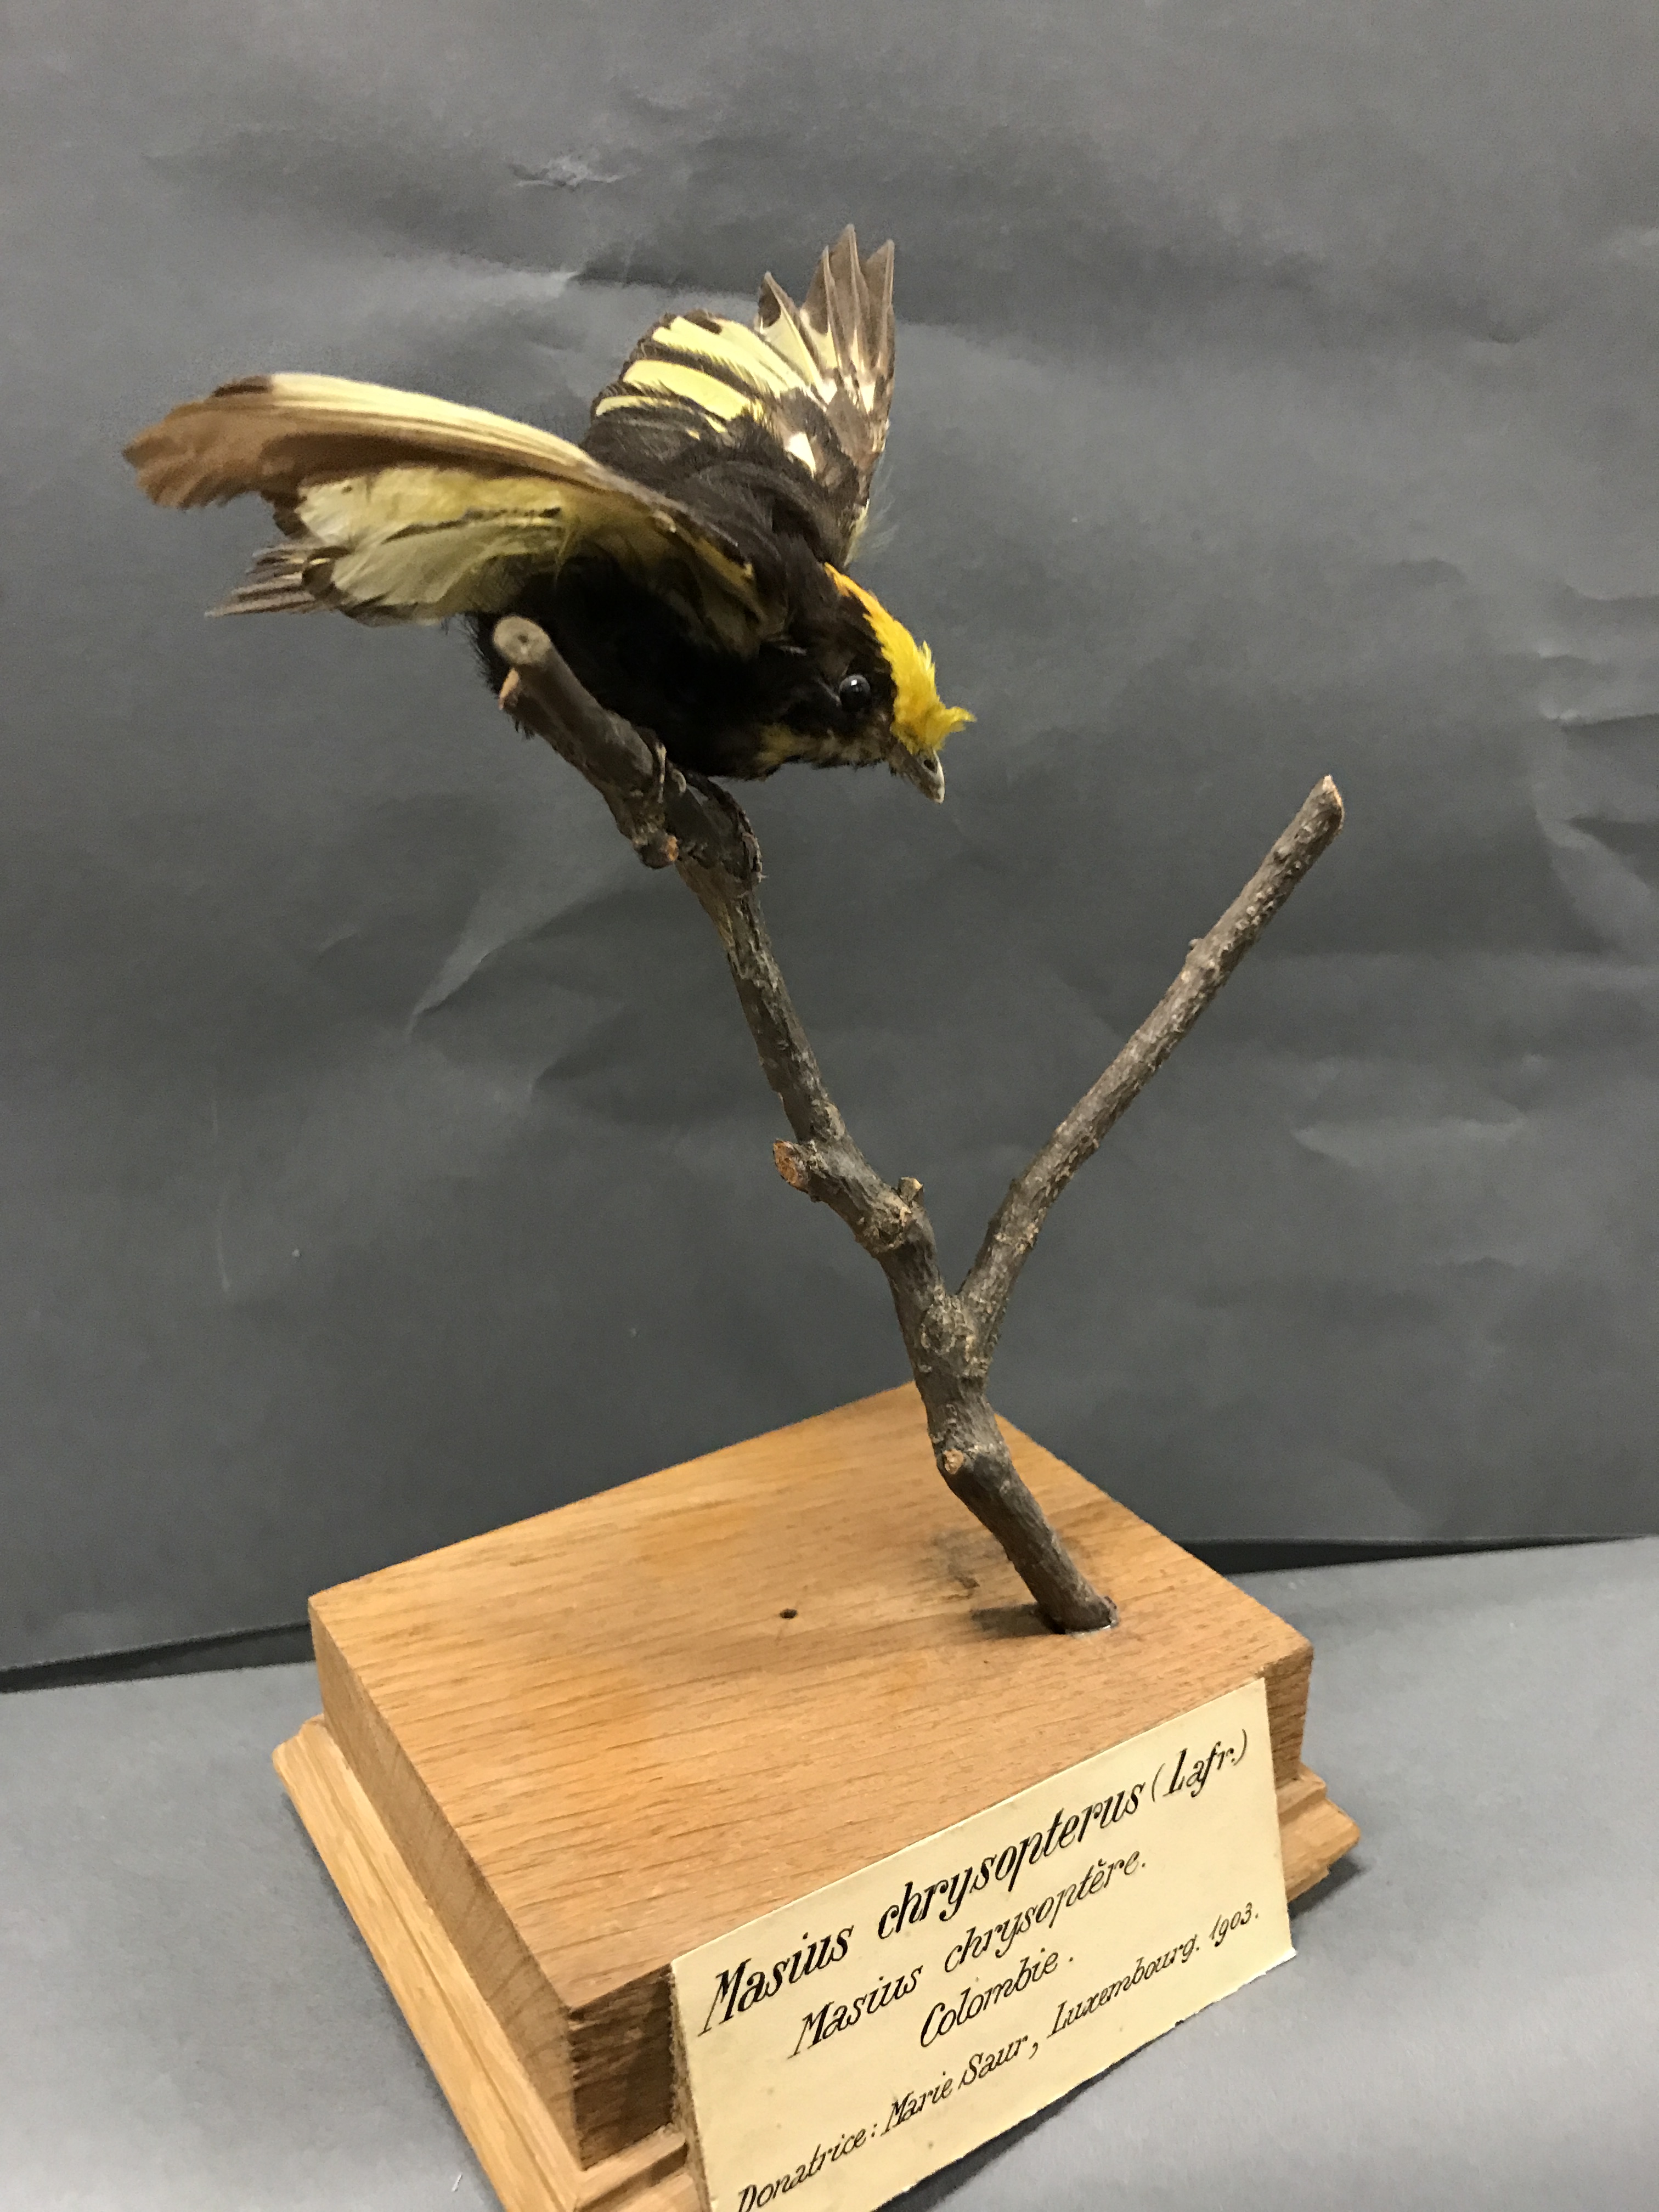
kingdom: Animalia
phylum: Chordata
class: Aves
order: Passeriformes
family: Pipridae
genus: Masius
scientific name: Masius chrysopterus
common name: Golden-winged manakin
